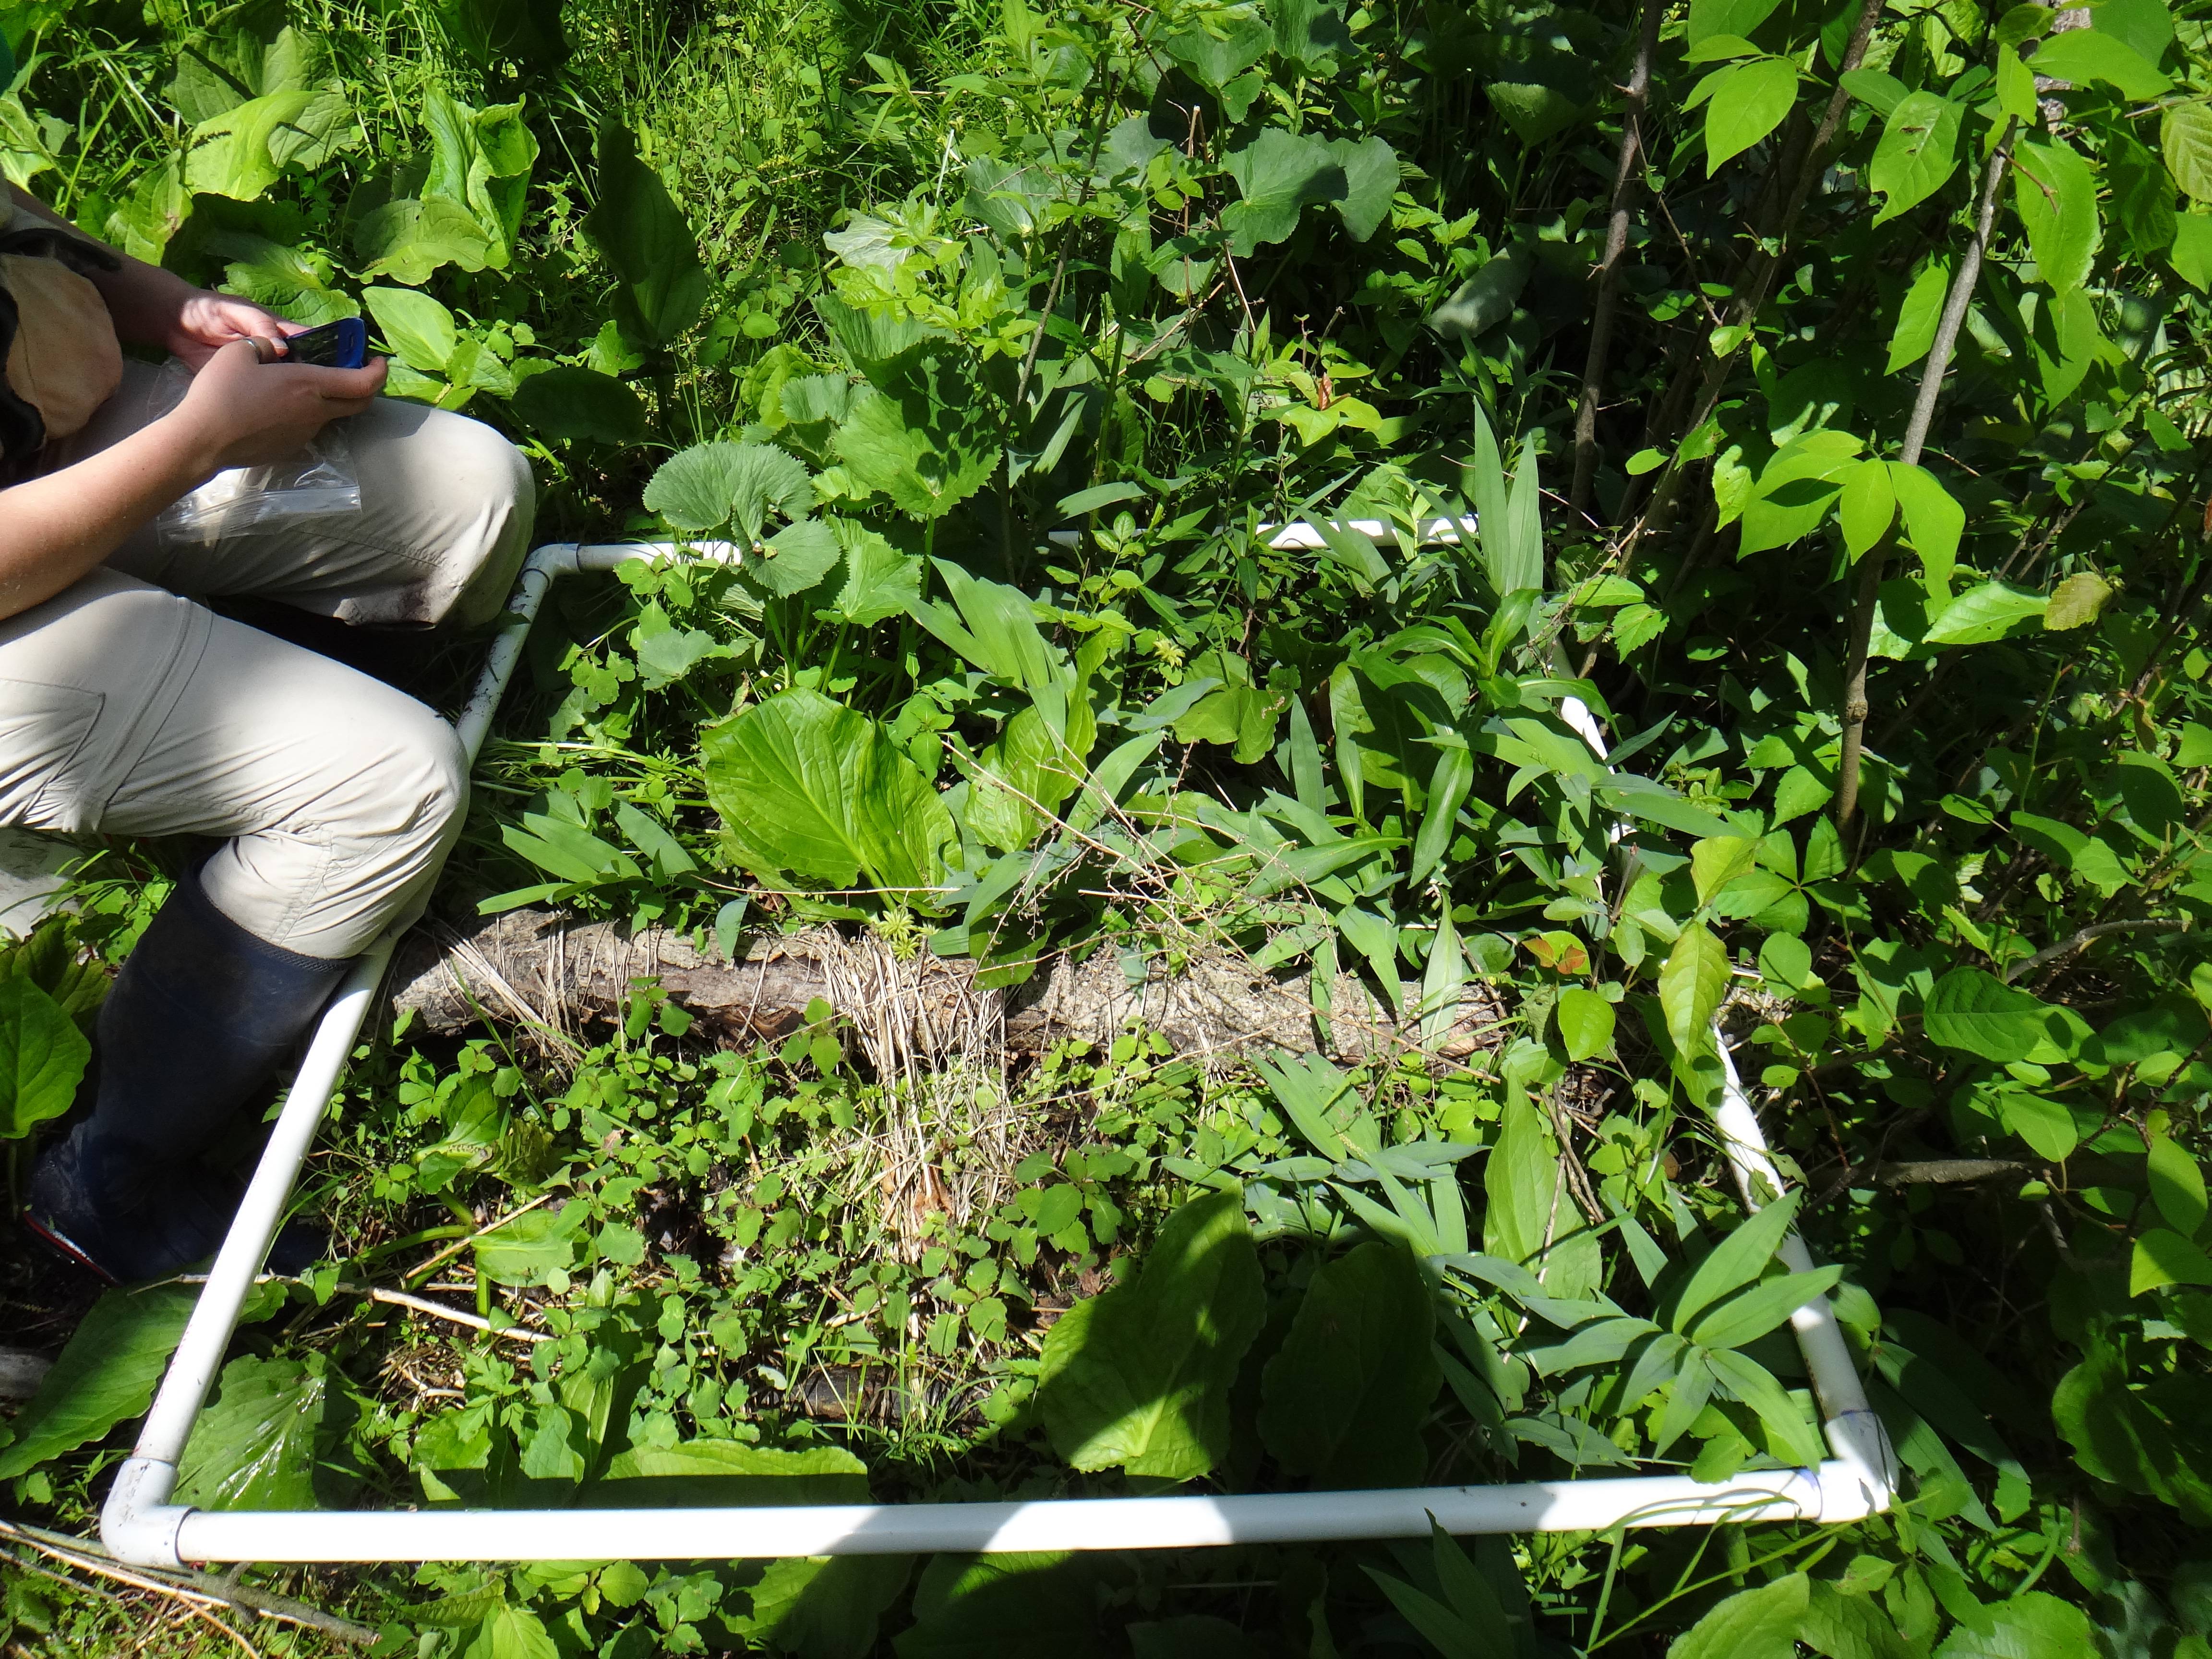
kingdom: Plantae
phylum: Tracheophyta
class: Liliopsida
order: Alismatales
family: Araceae
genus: Symplocarpus
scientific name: Symplocarpus foetidus
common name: Eastern skunk cabbage
